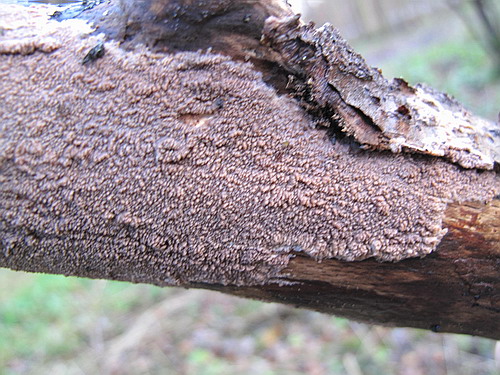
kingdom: Fungi
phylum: Basidiomycota
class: Agaricomycetes
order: Polyporales
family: Meruliaceae
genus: Phlebia
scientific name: Phlebia rufa
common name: ege-åresvamp
